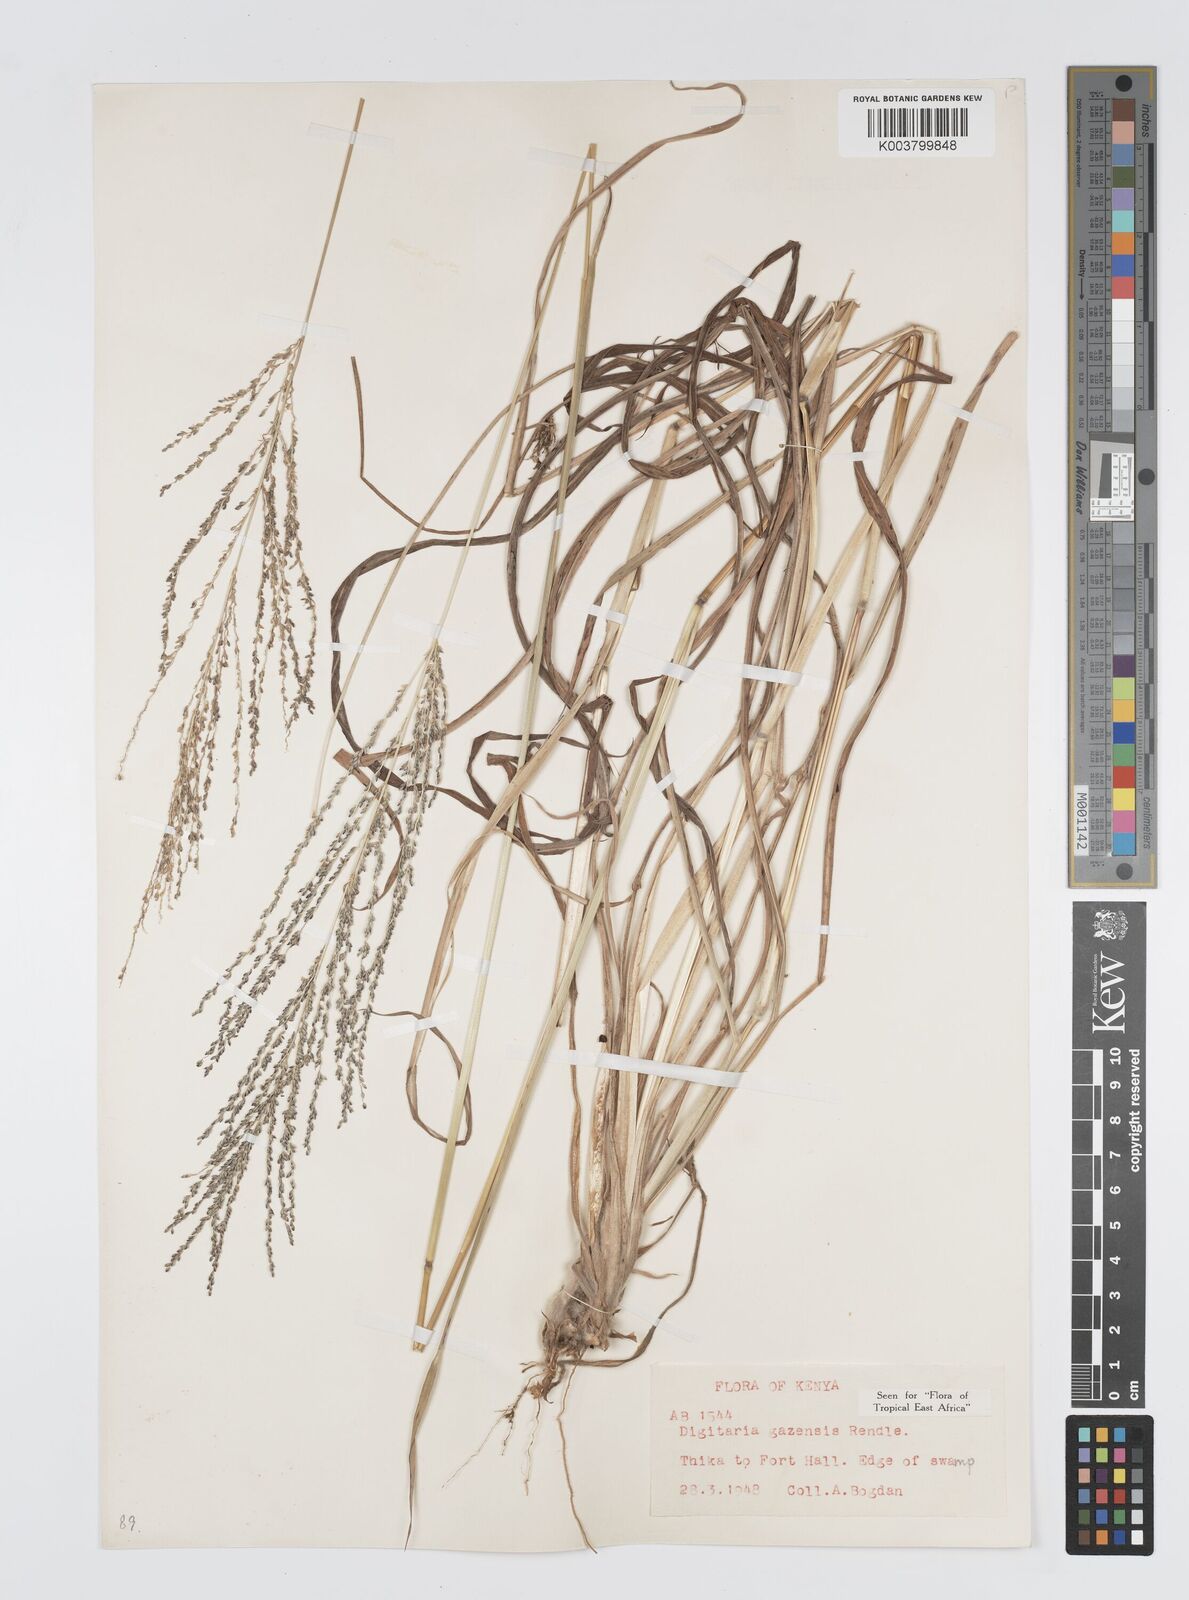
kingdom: Plantae
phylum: Tracheophyta
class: Liliopsida
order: Poales
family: Poaceae
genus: Digitaria
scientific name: Digitaria gazensis
